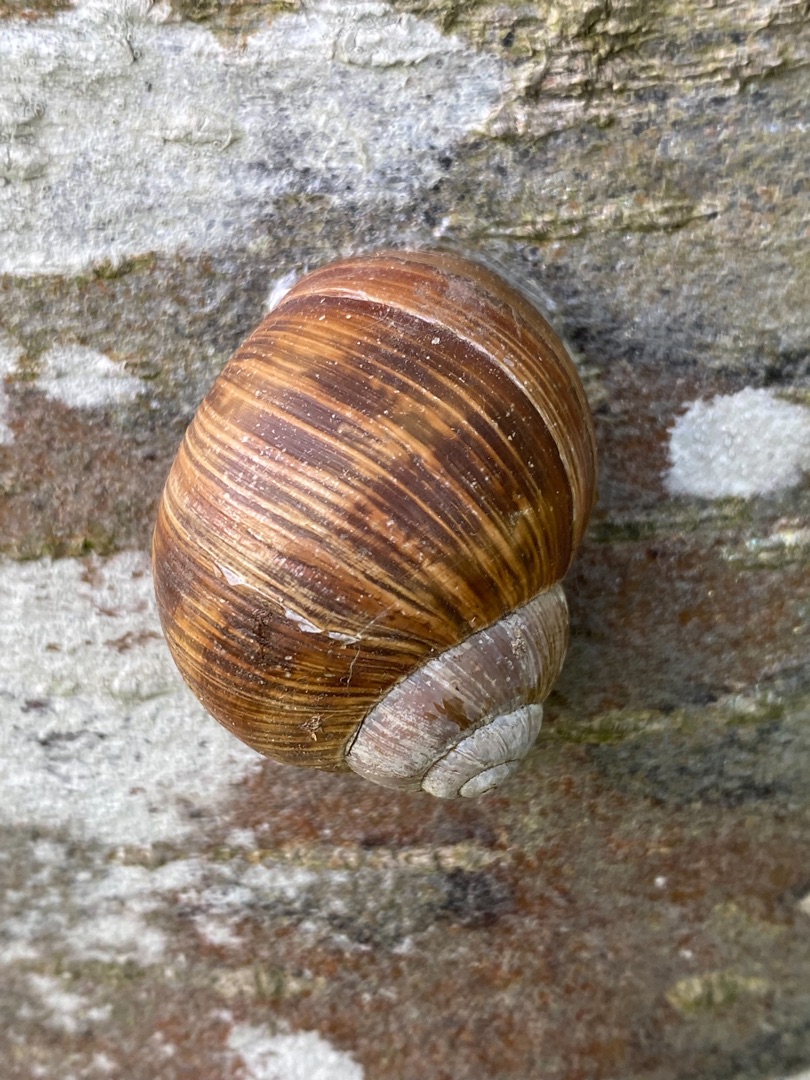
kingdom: Animalia
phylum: Mollusca
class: Gastropoda
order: Stylommatophora
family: Helicidae
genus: Helix
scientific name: Helix pomatia
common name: Vinbjergsnegl
